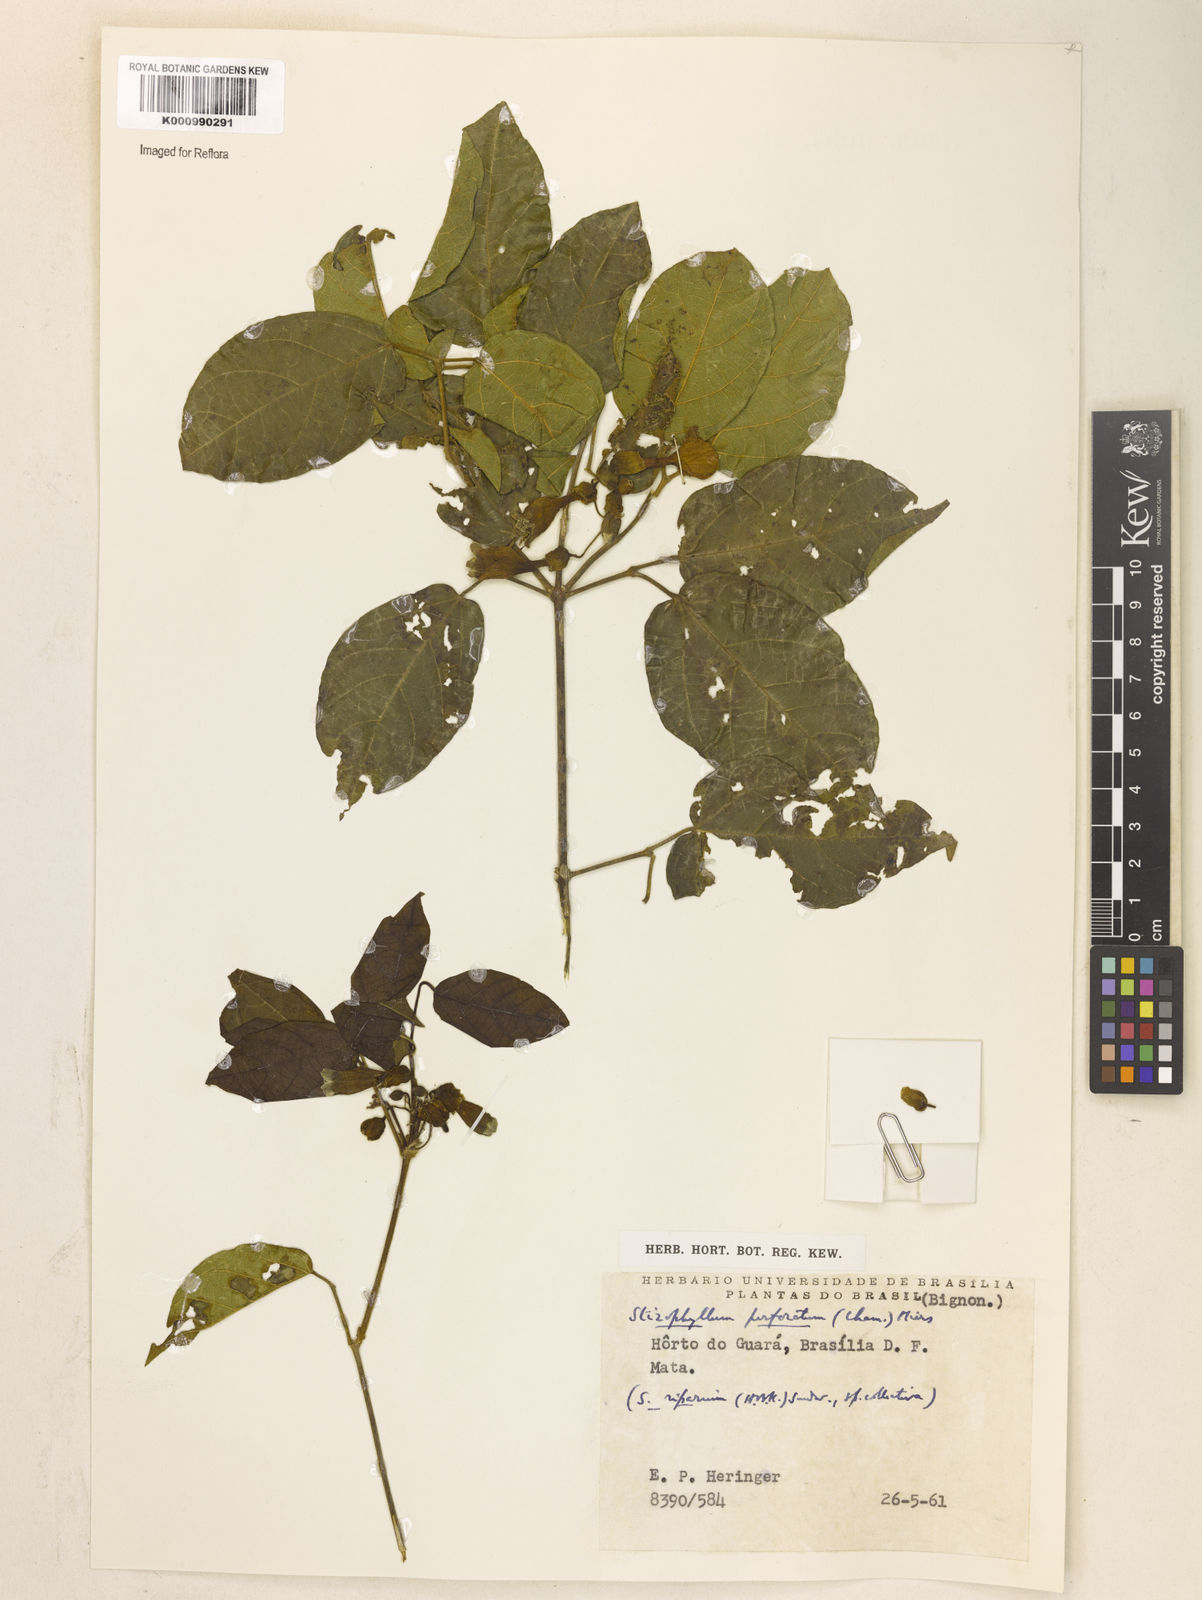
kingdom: Plantae
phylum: Tracheophyta
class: Magnoliopsida
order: Lamiales
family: Bignoniaceae
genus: Stizophyllum
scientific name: Stizophyllum perforatum
